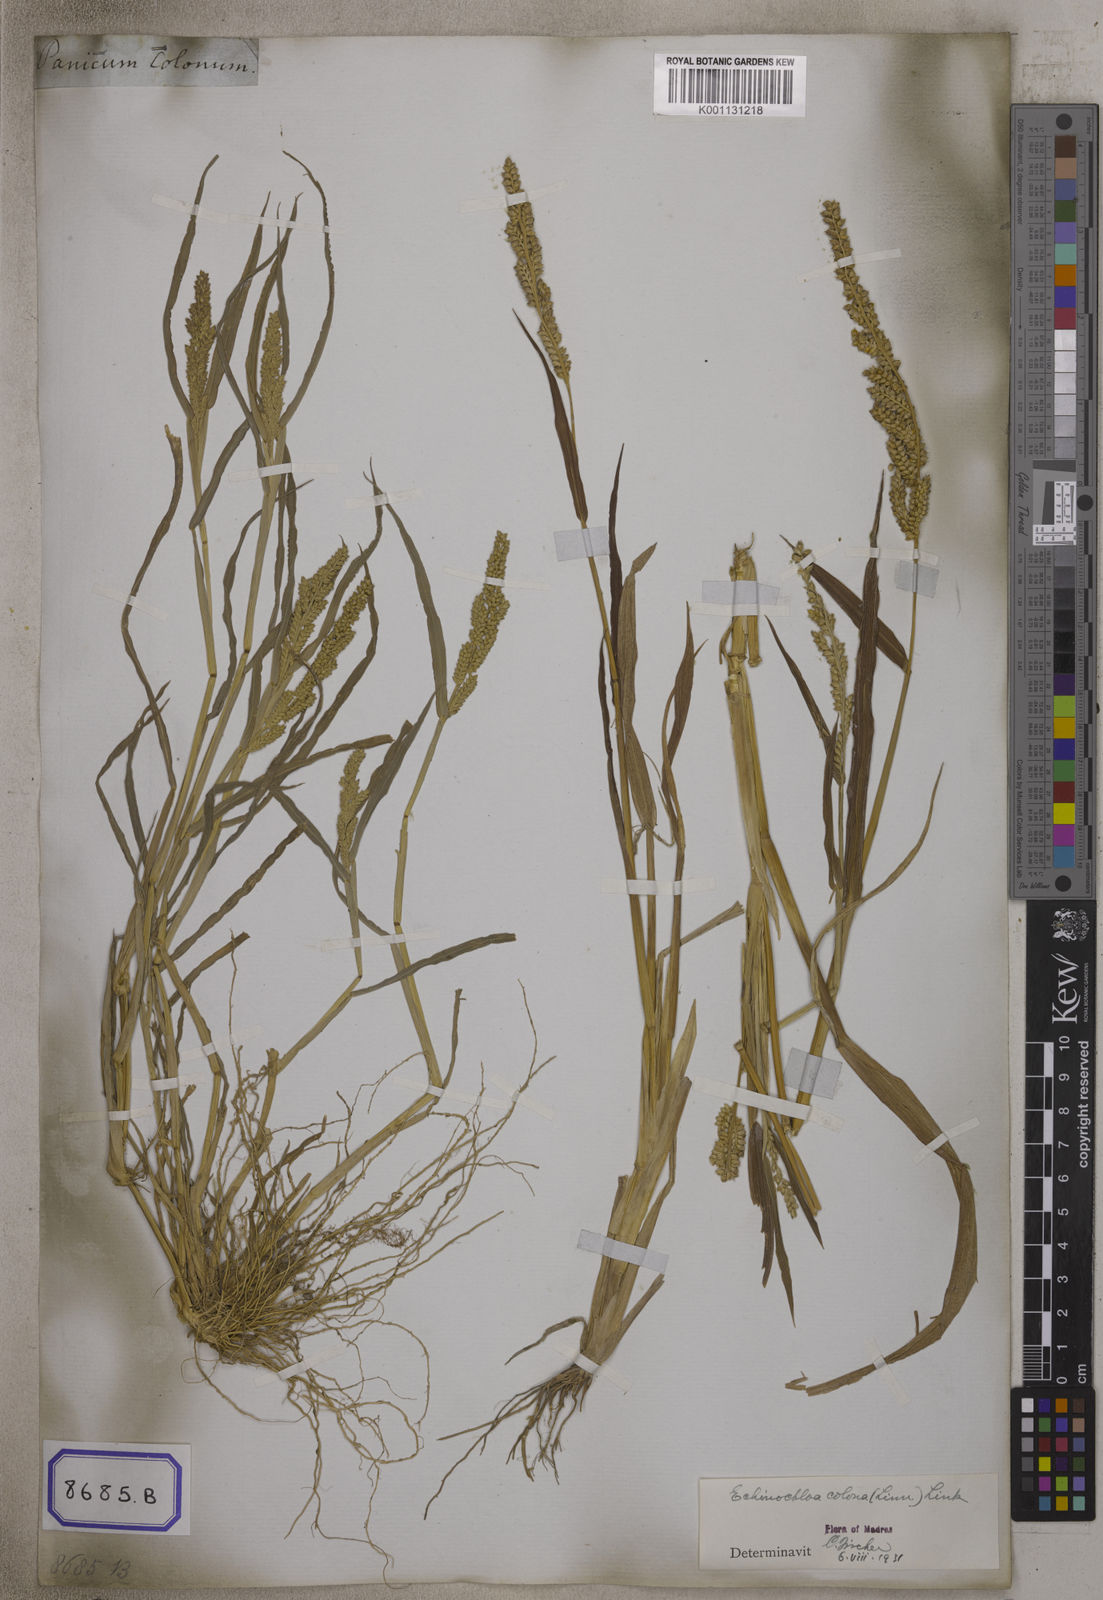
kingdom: Plantae
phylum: Tracheophyta
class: Liliopsida
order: Poales
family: Poaceae
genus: Echinochloa
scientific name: Echinochloa colonum
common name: Jungle rice
